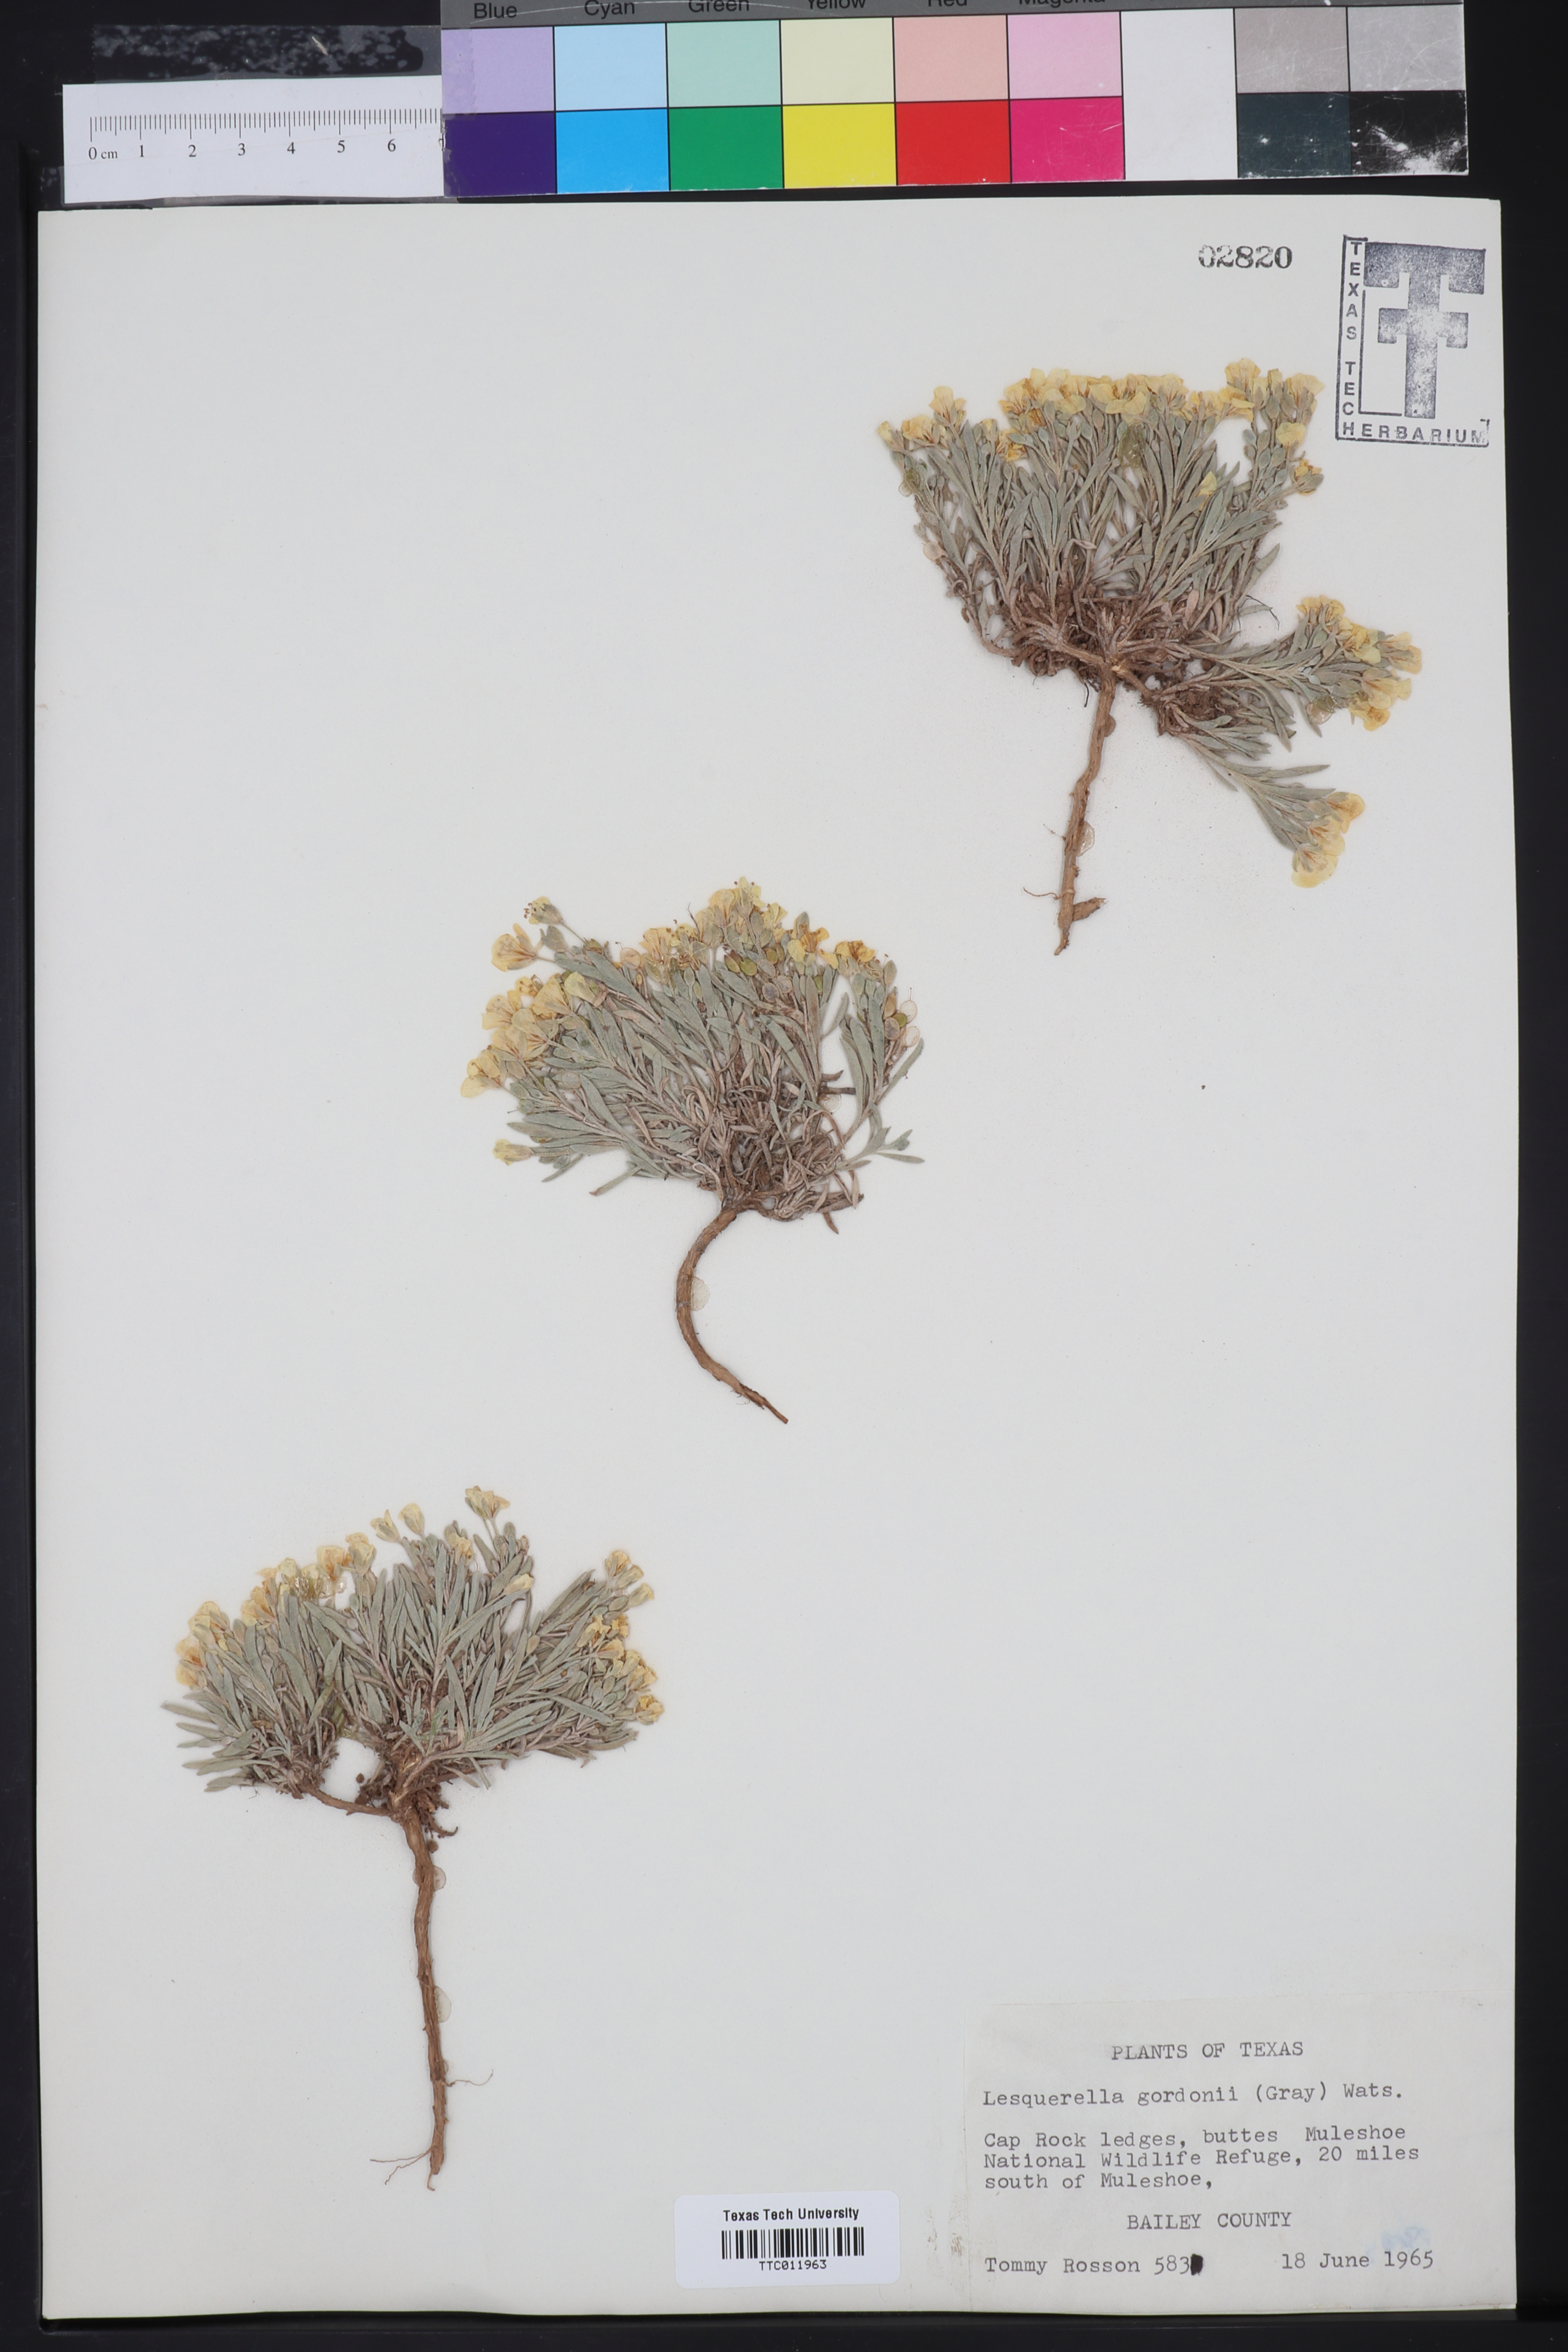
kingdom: Plantae
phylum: Tracheophyta
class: Magnoliopsida
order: Brassicales
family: Brassicaceae
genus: Physaria
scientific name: Physaria gordonii
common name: Gordon's bladderpod
